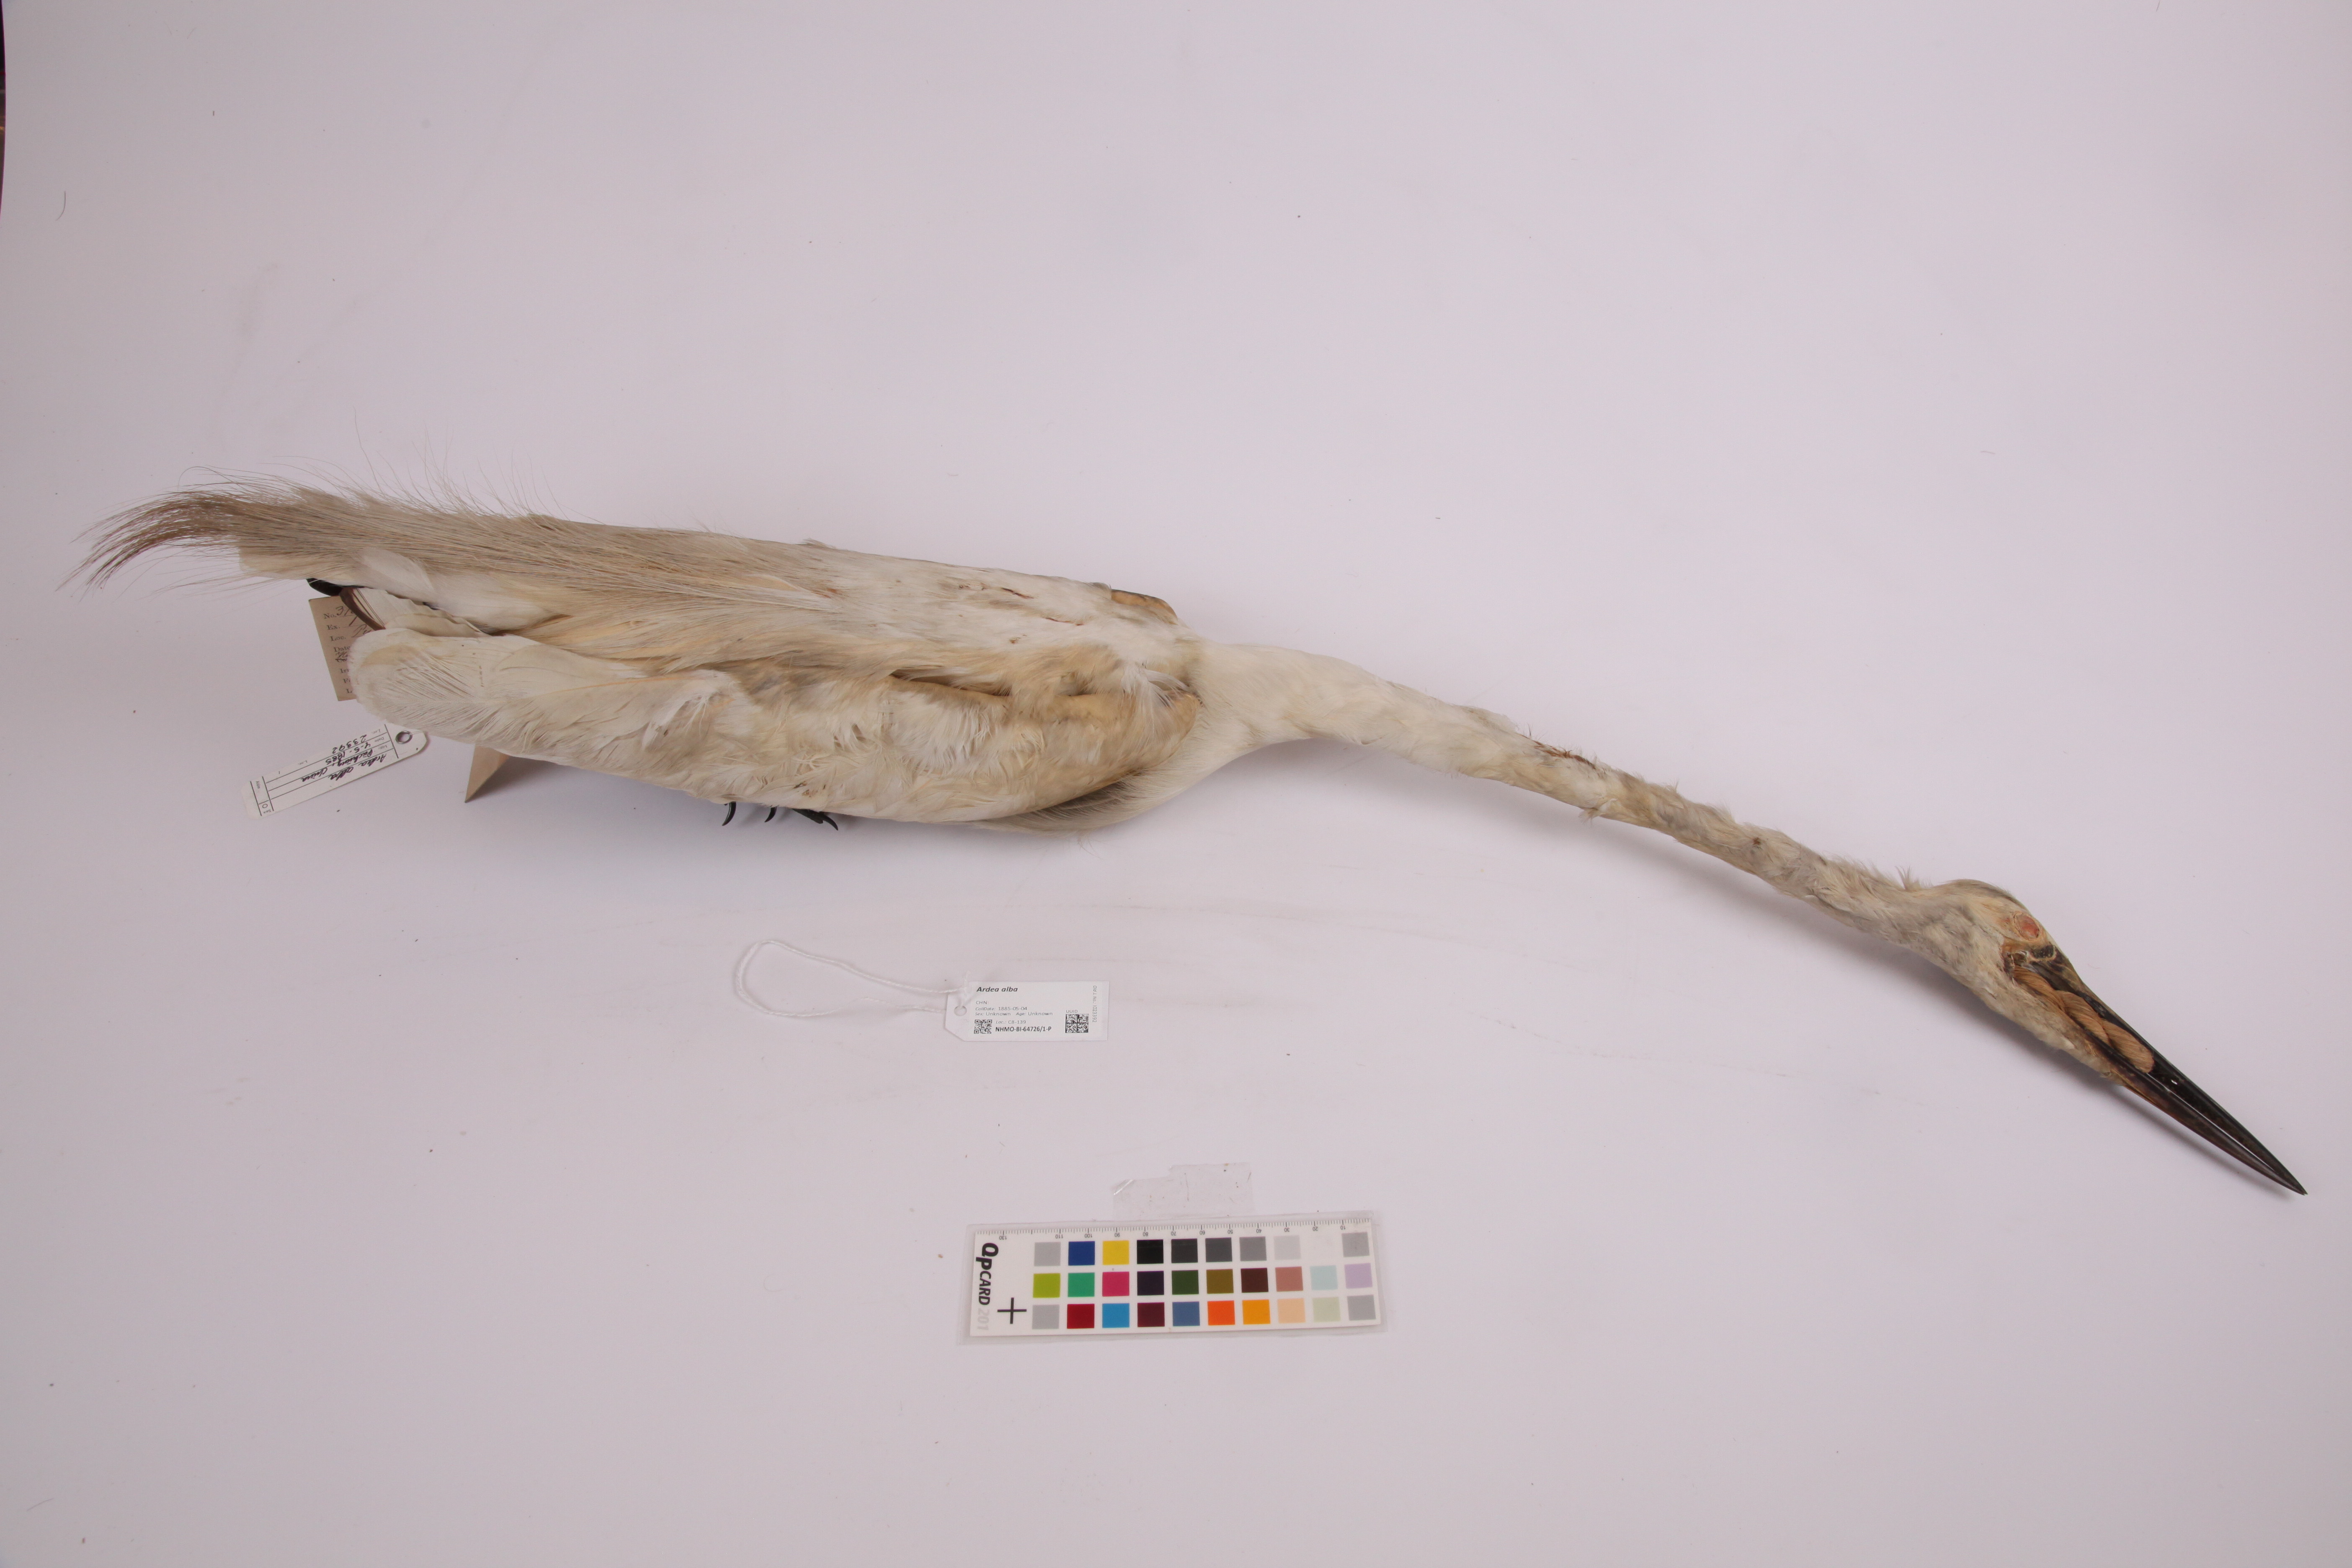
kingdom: Animalia
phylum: Chordata
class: Aves
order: Pelecaniformes
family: Ardeidae
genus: Ardea
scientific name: Ardea alba
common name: Great egret
